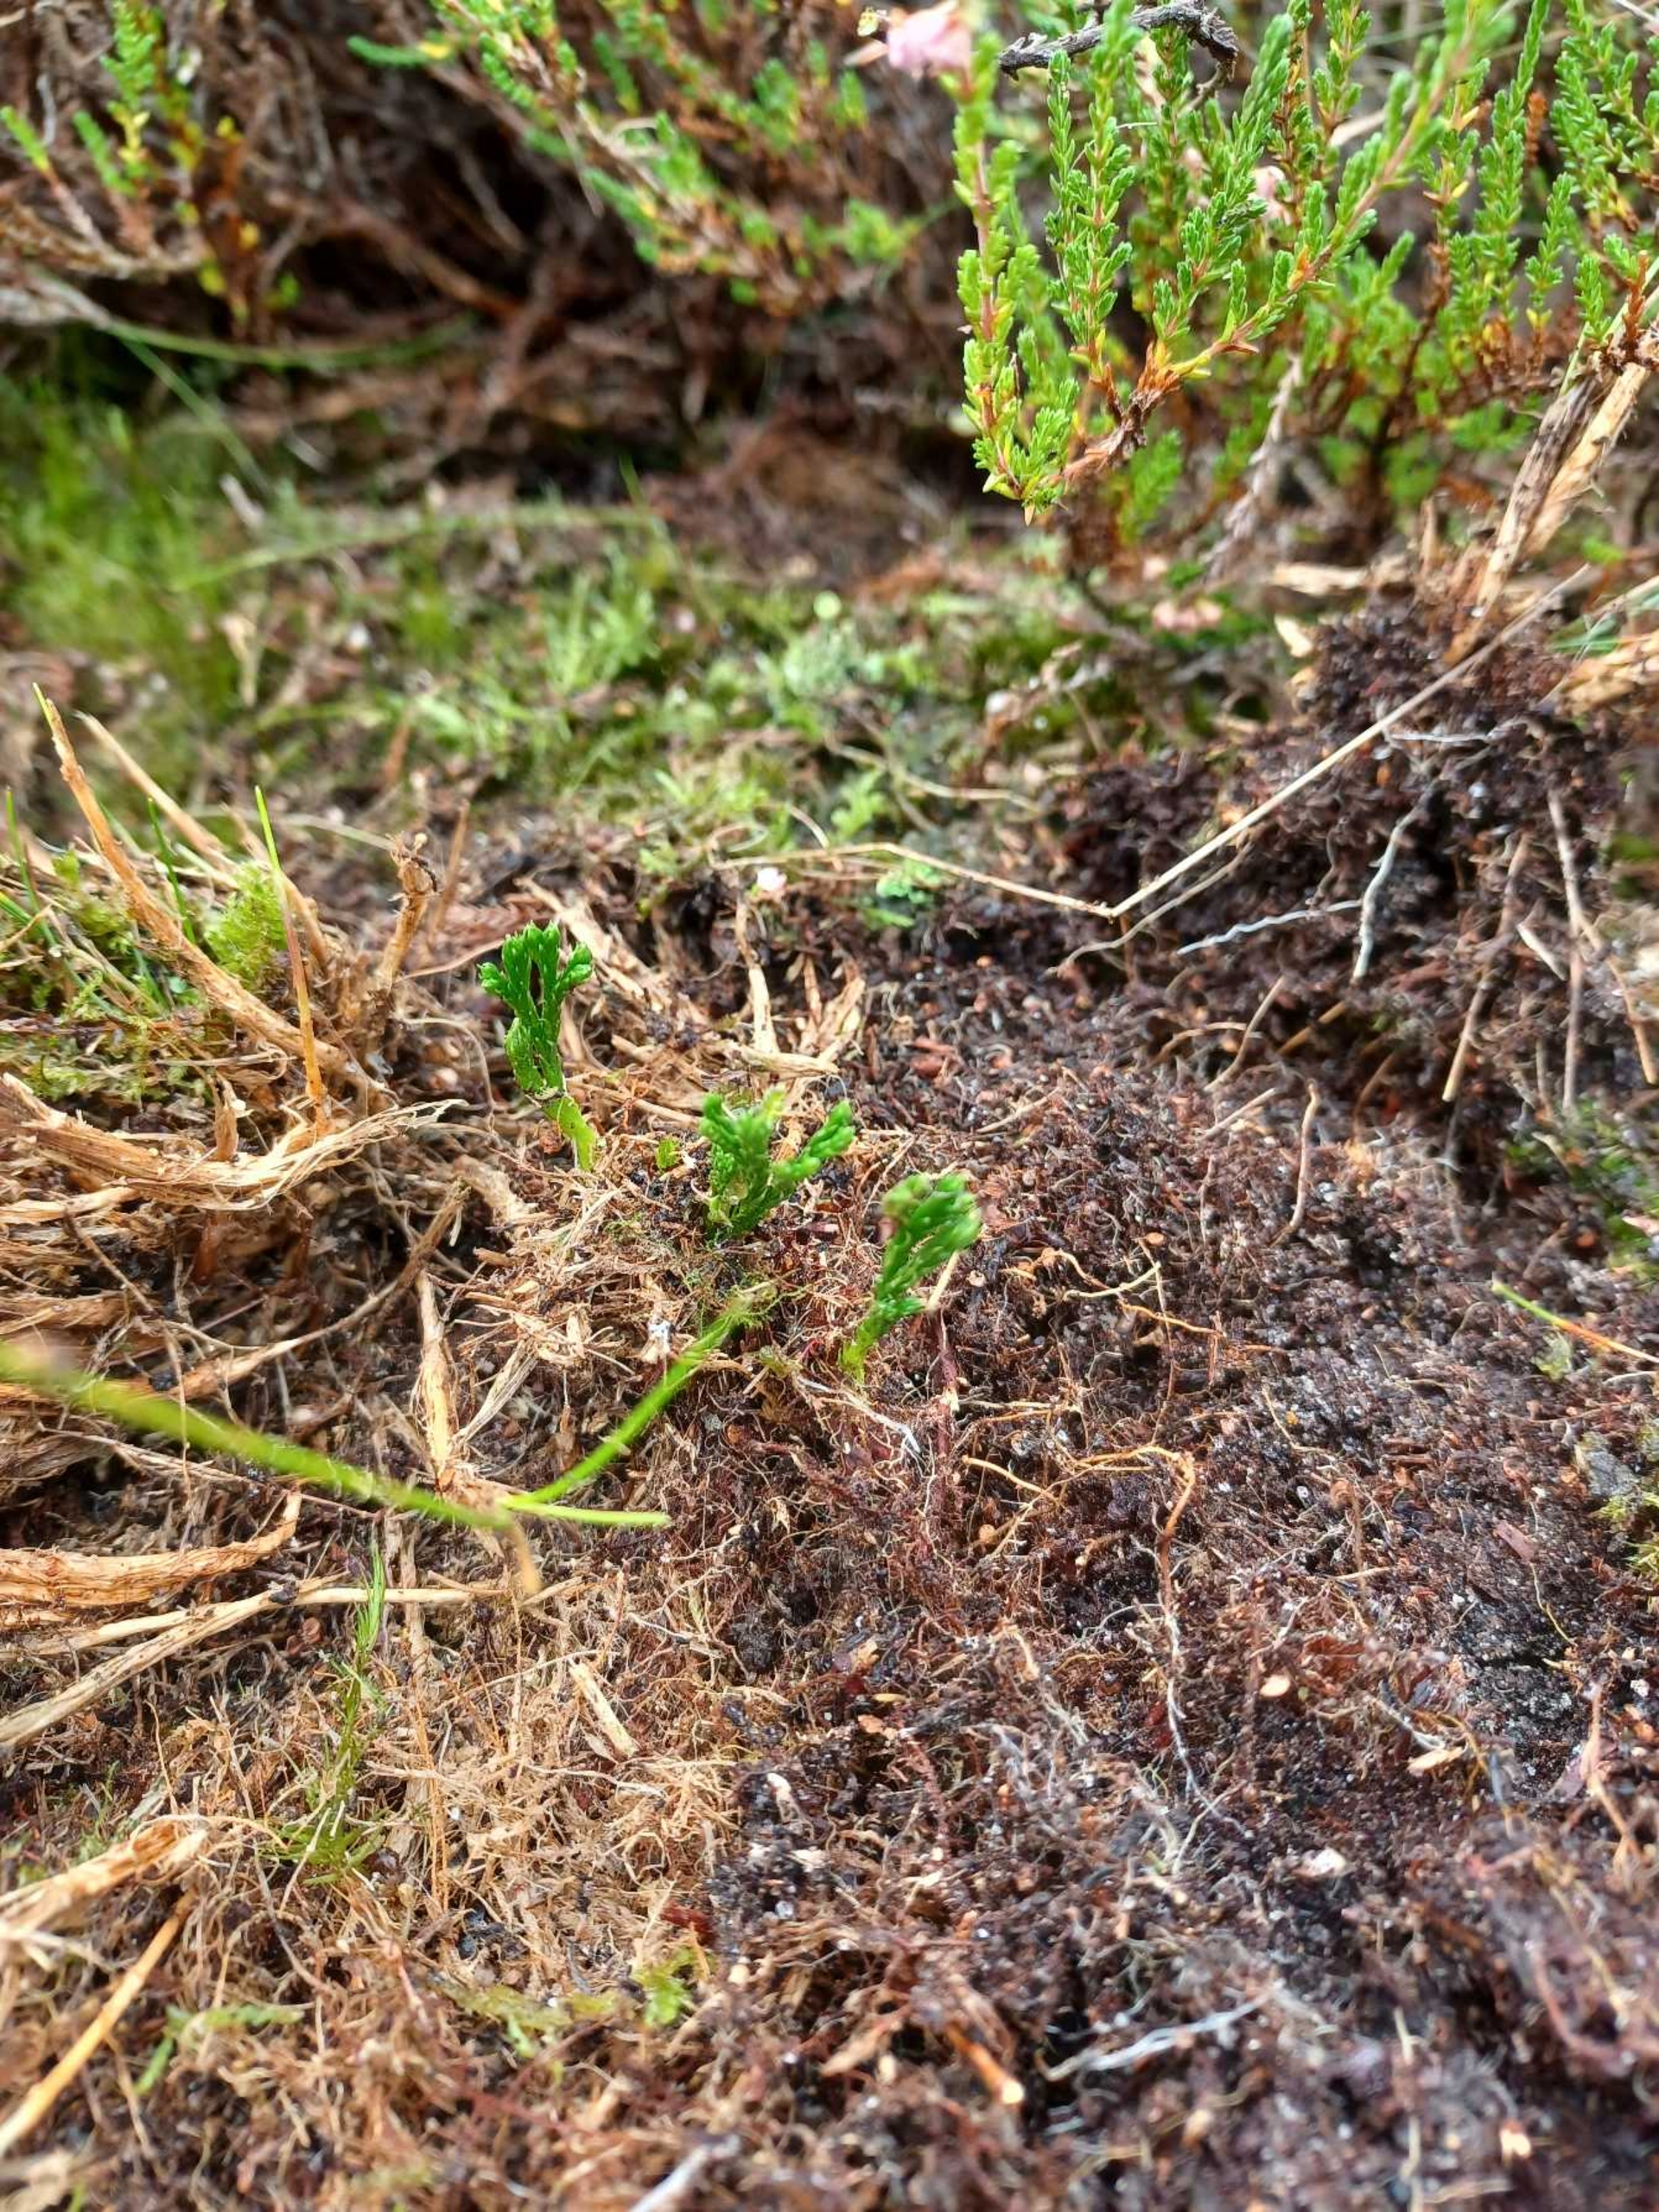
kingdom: Plantae
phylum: Tracheophyta
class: Lycopodiopsida
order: Lycopodiales
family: Lycopodiaceae
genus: Diphasiastrum
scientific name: Diphasiastrum tristachyum
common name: Cypres-ulvefod
